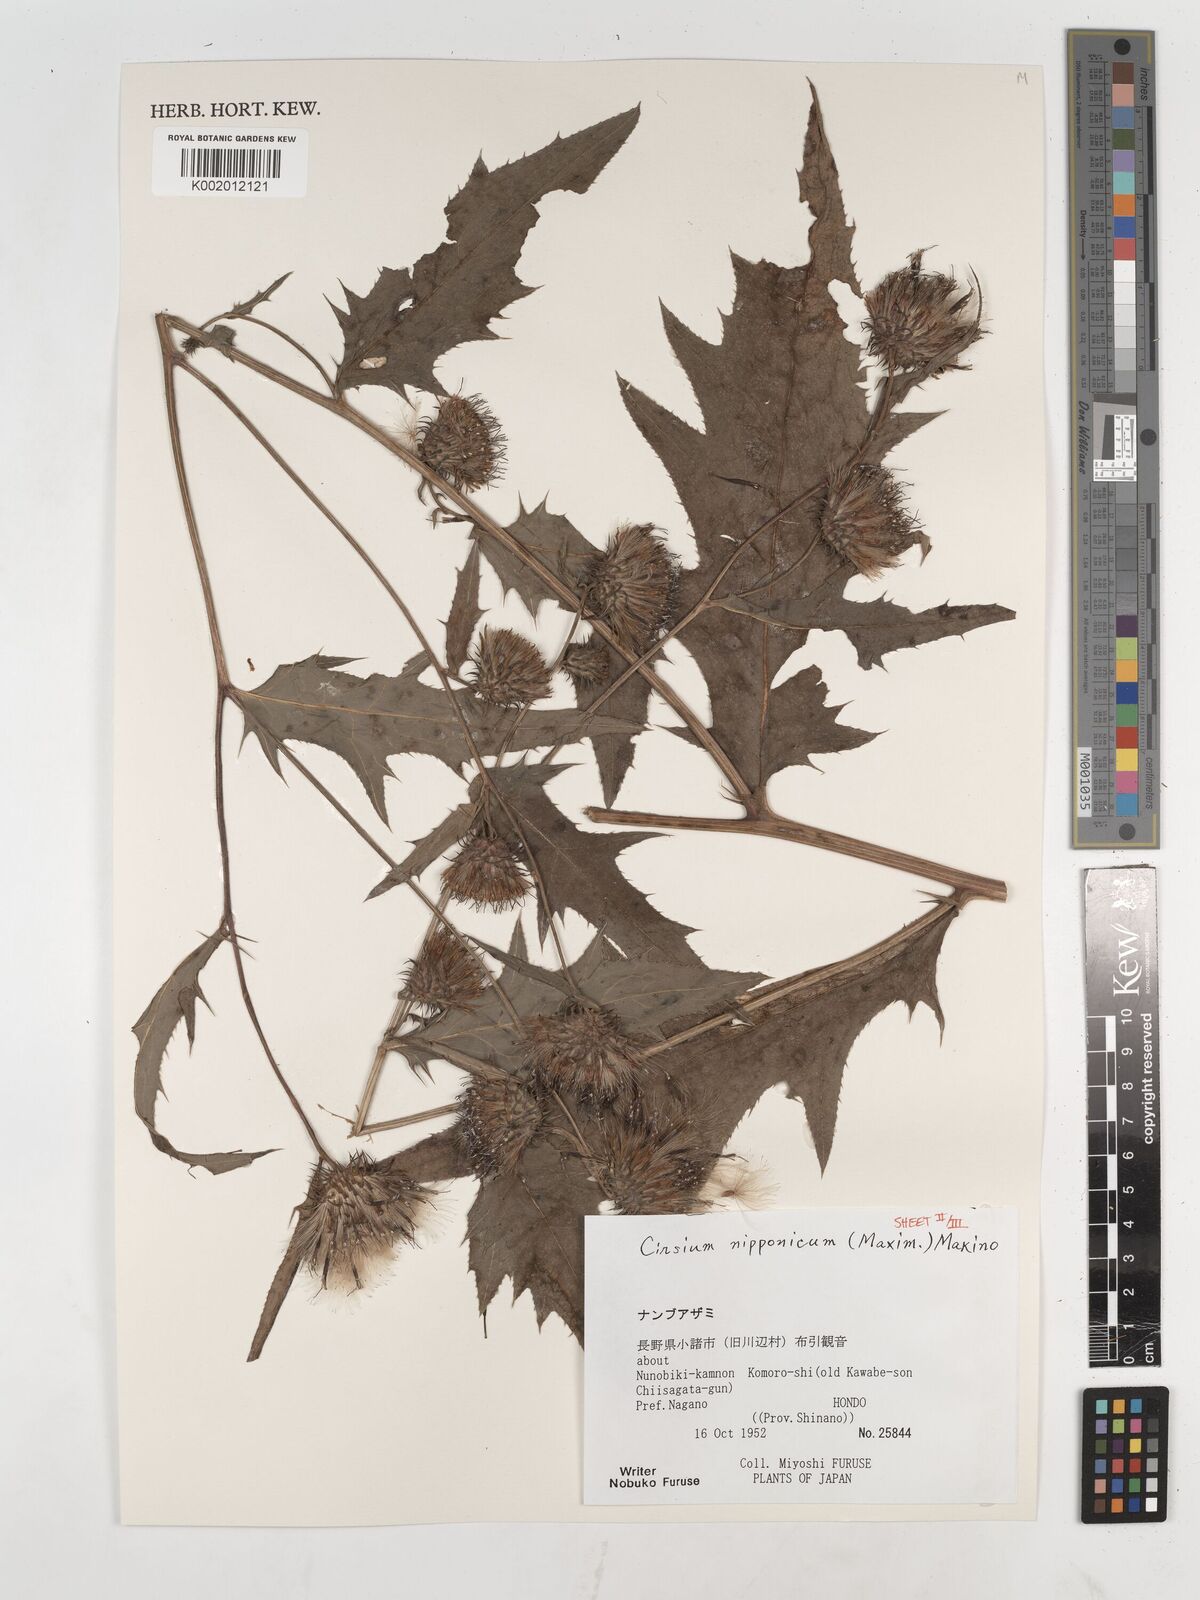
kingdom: Plantae
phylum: Tracheophyta
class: Magnoliopsida
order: Asterales
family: Asteraceae
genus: Cirsium
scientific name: Cirsium nipponicum
